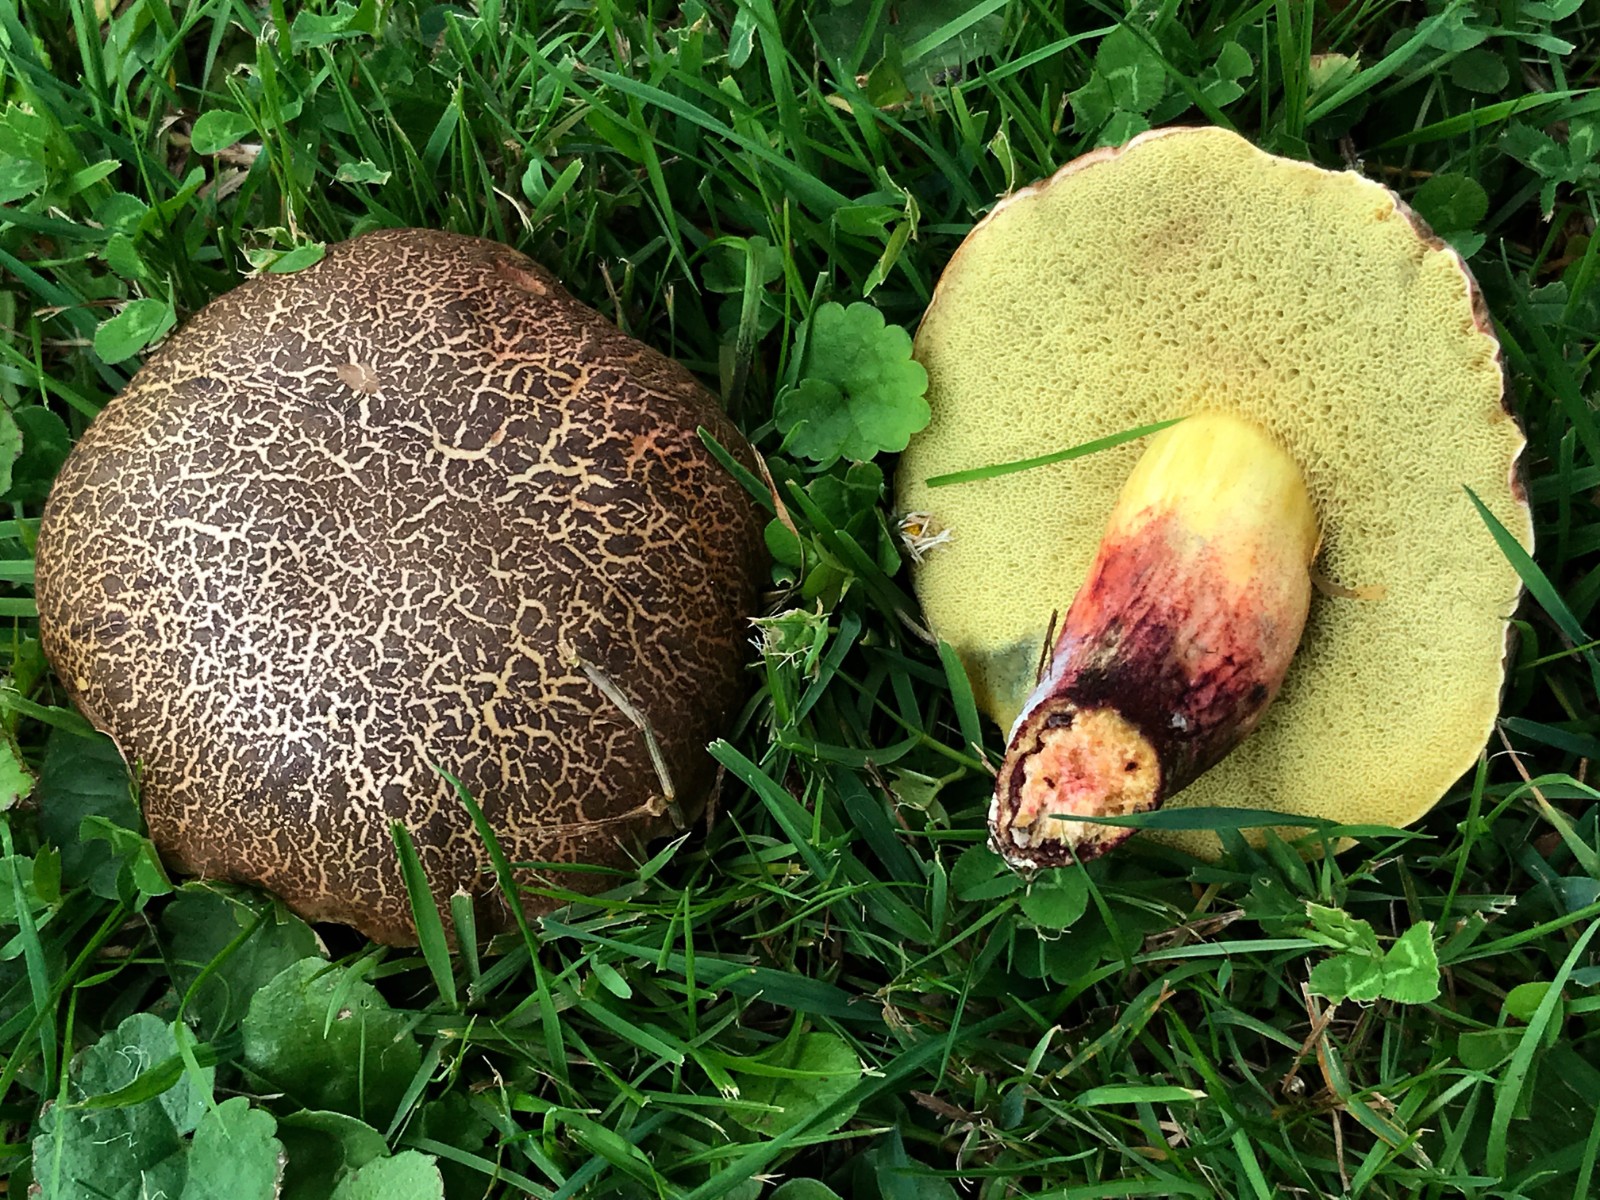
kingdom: Fungi
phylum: Basidiomycota
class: Agaricomycetes
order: Boletales
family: Boletaceae
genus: Xerocomellus
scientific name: Xerocomellus cisalpinus
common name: finsprukken rørhat
